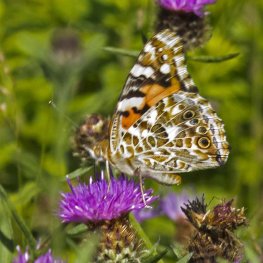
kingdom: Animalia
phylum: Arthropoda
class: Insecta
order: Lepidoptera
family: Nymphalidae
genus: Vanessa
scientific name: Vanessa cardui
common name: Painted Lady
